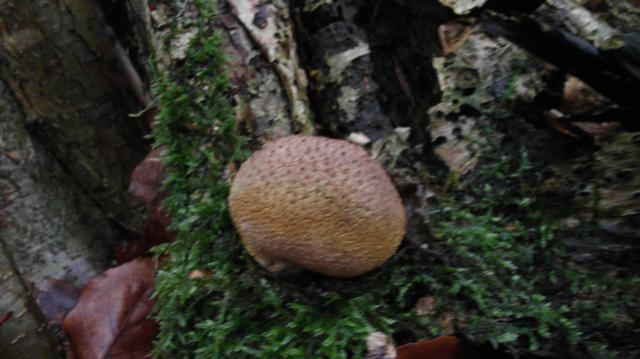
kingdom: Fungi
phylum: Basidiomycota
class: Agaricomycetes
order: Boletales
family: Sclerodermataceae
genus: Scleroderma
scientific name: Scleroderma citrinum
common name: almindelig bruskbold
